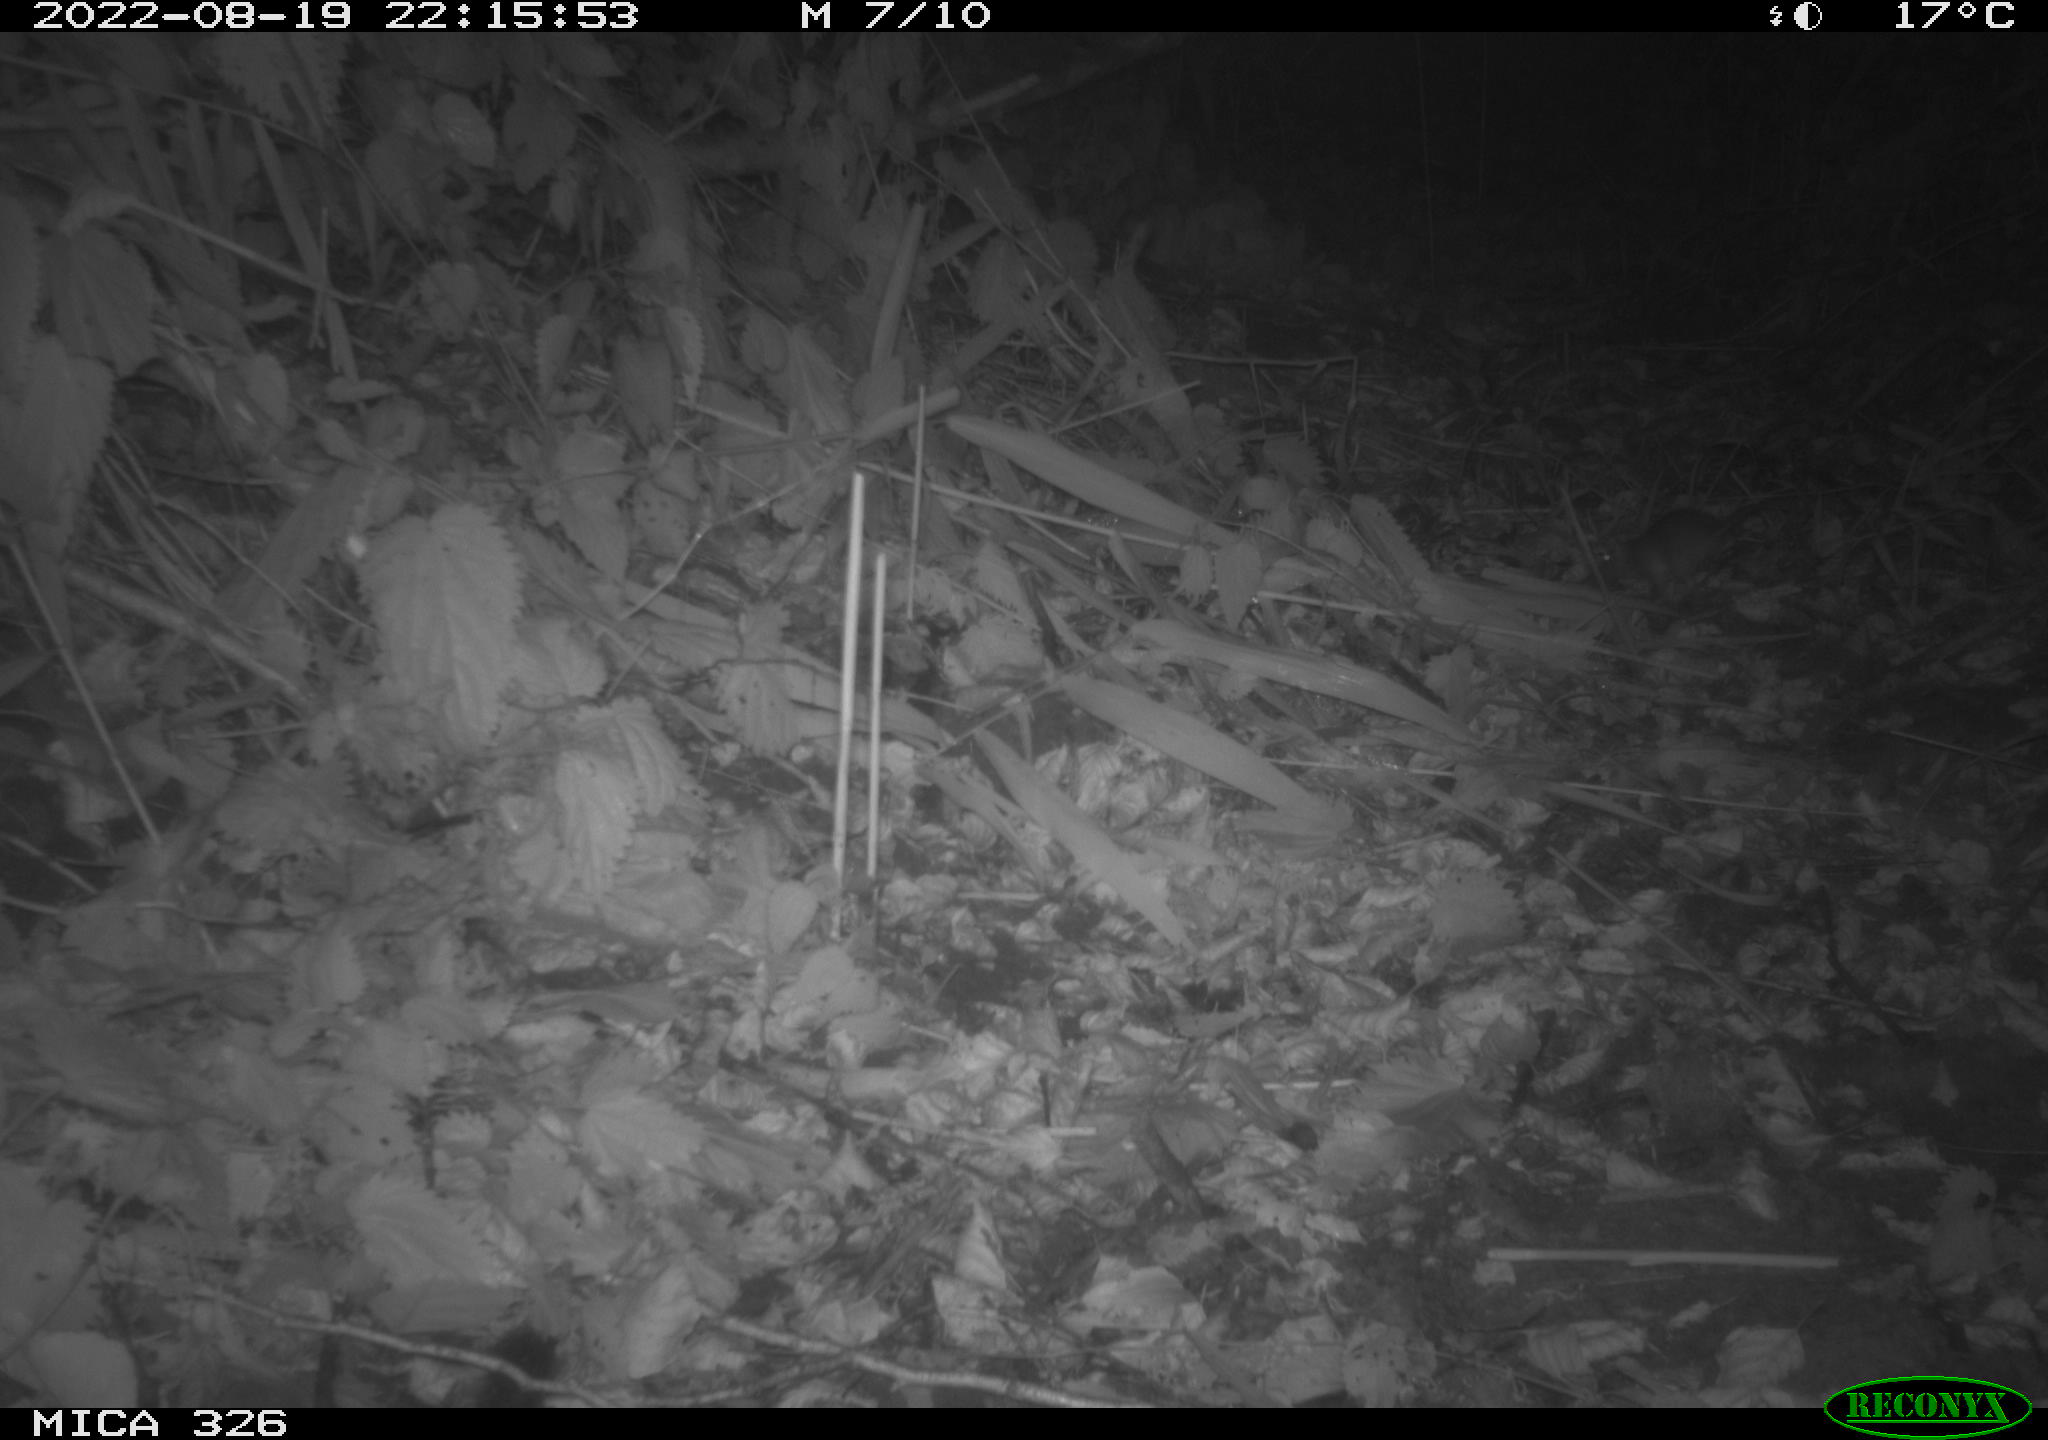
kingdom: Animalia
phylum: Chordata
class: Mammalia
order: Rodentia
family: Muridae
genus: Rattus
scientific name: Rattus norvegicus
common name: Brown rat
